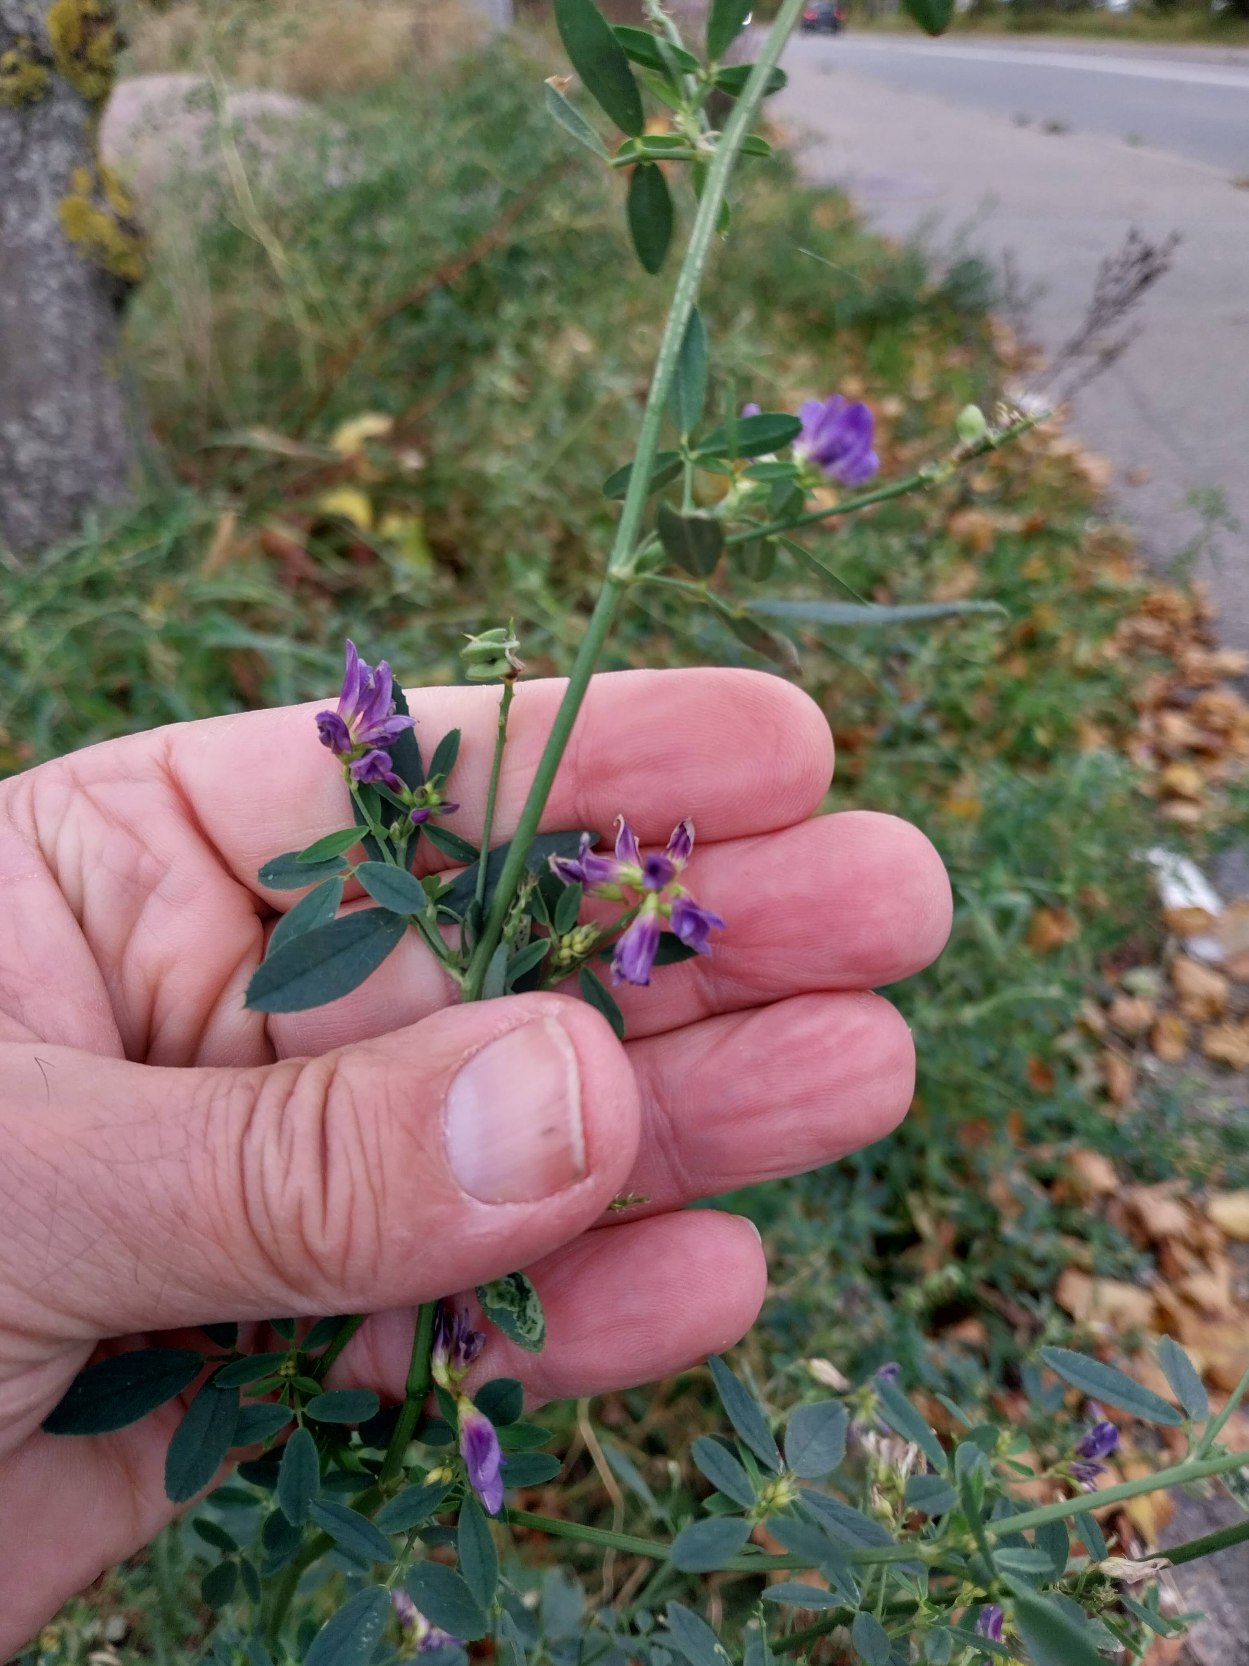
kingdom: Plantae
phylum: Tracheophyta
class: Magnoliopsida
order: Fabales
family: Fabaceae
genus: Medicago
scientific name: Medicago sativa
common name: Foderlucerne
